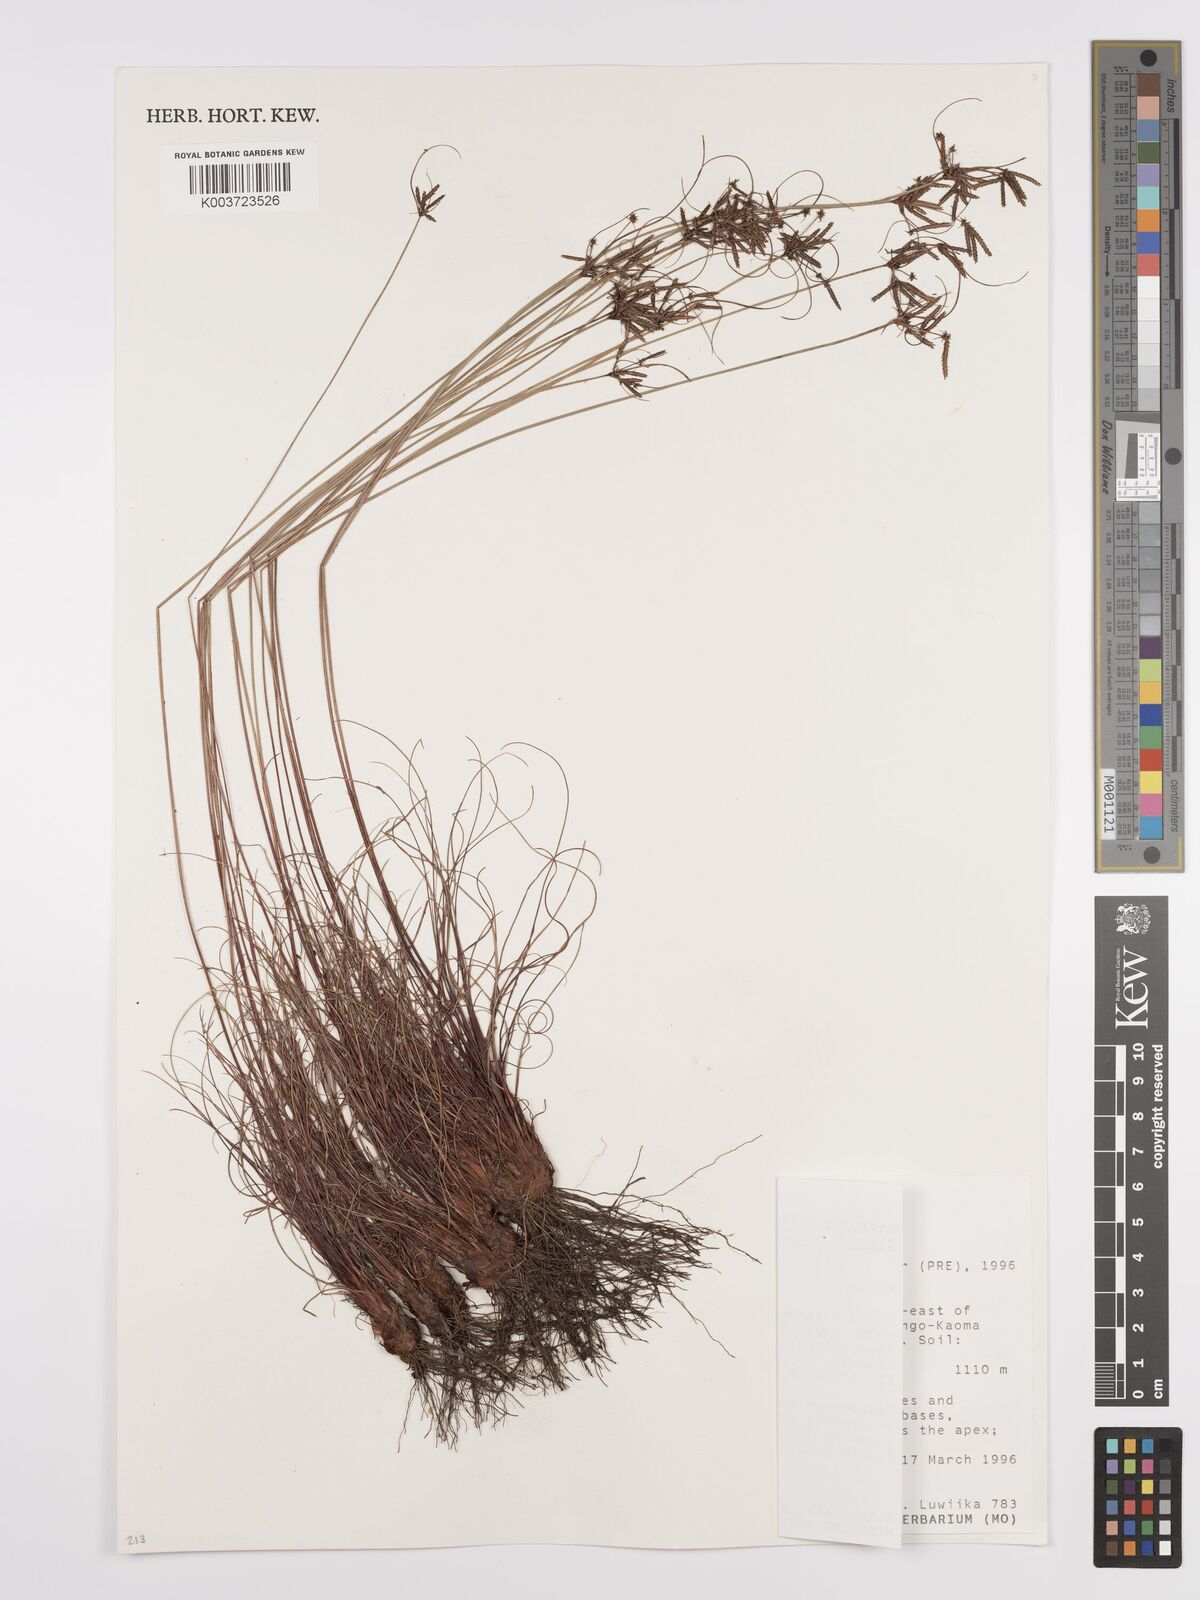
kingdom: Plantae
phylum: Tracheophyta
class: Liliopsida
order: Poales
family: Cyperaceae
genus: Cyperus
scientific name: Cyperus tenax
